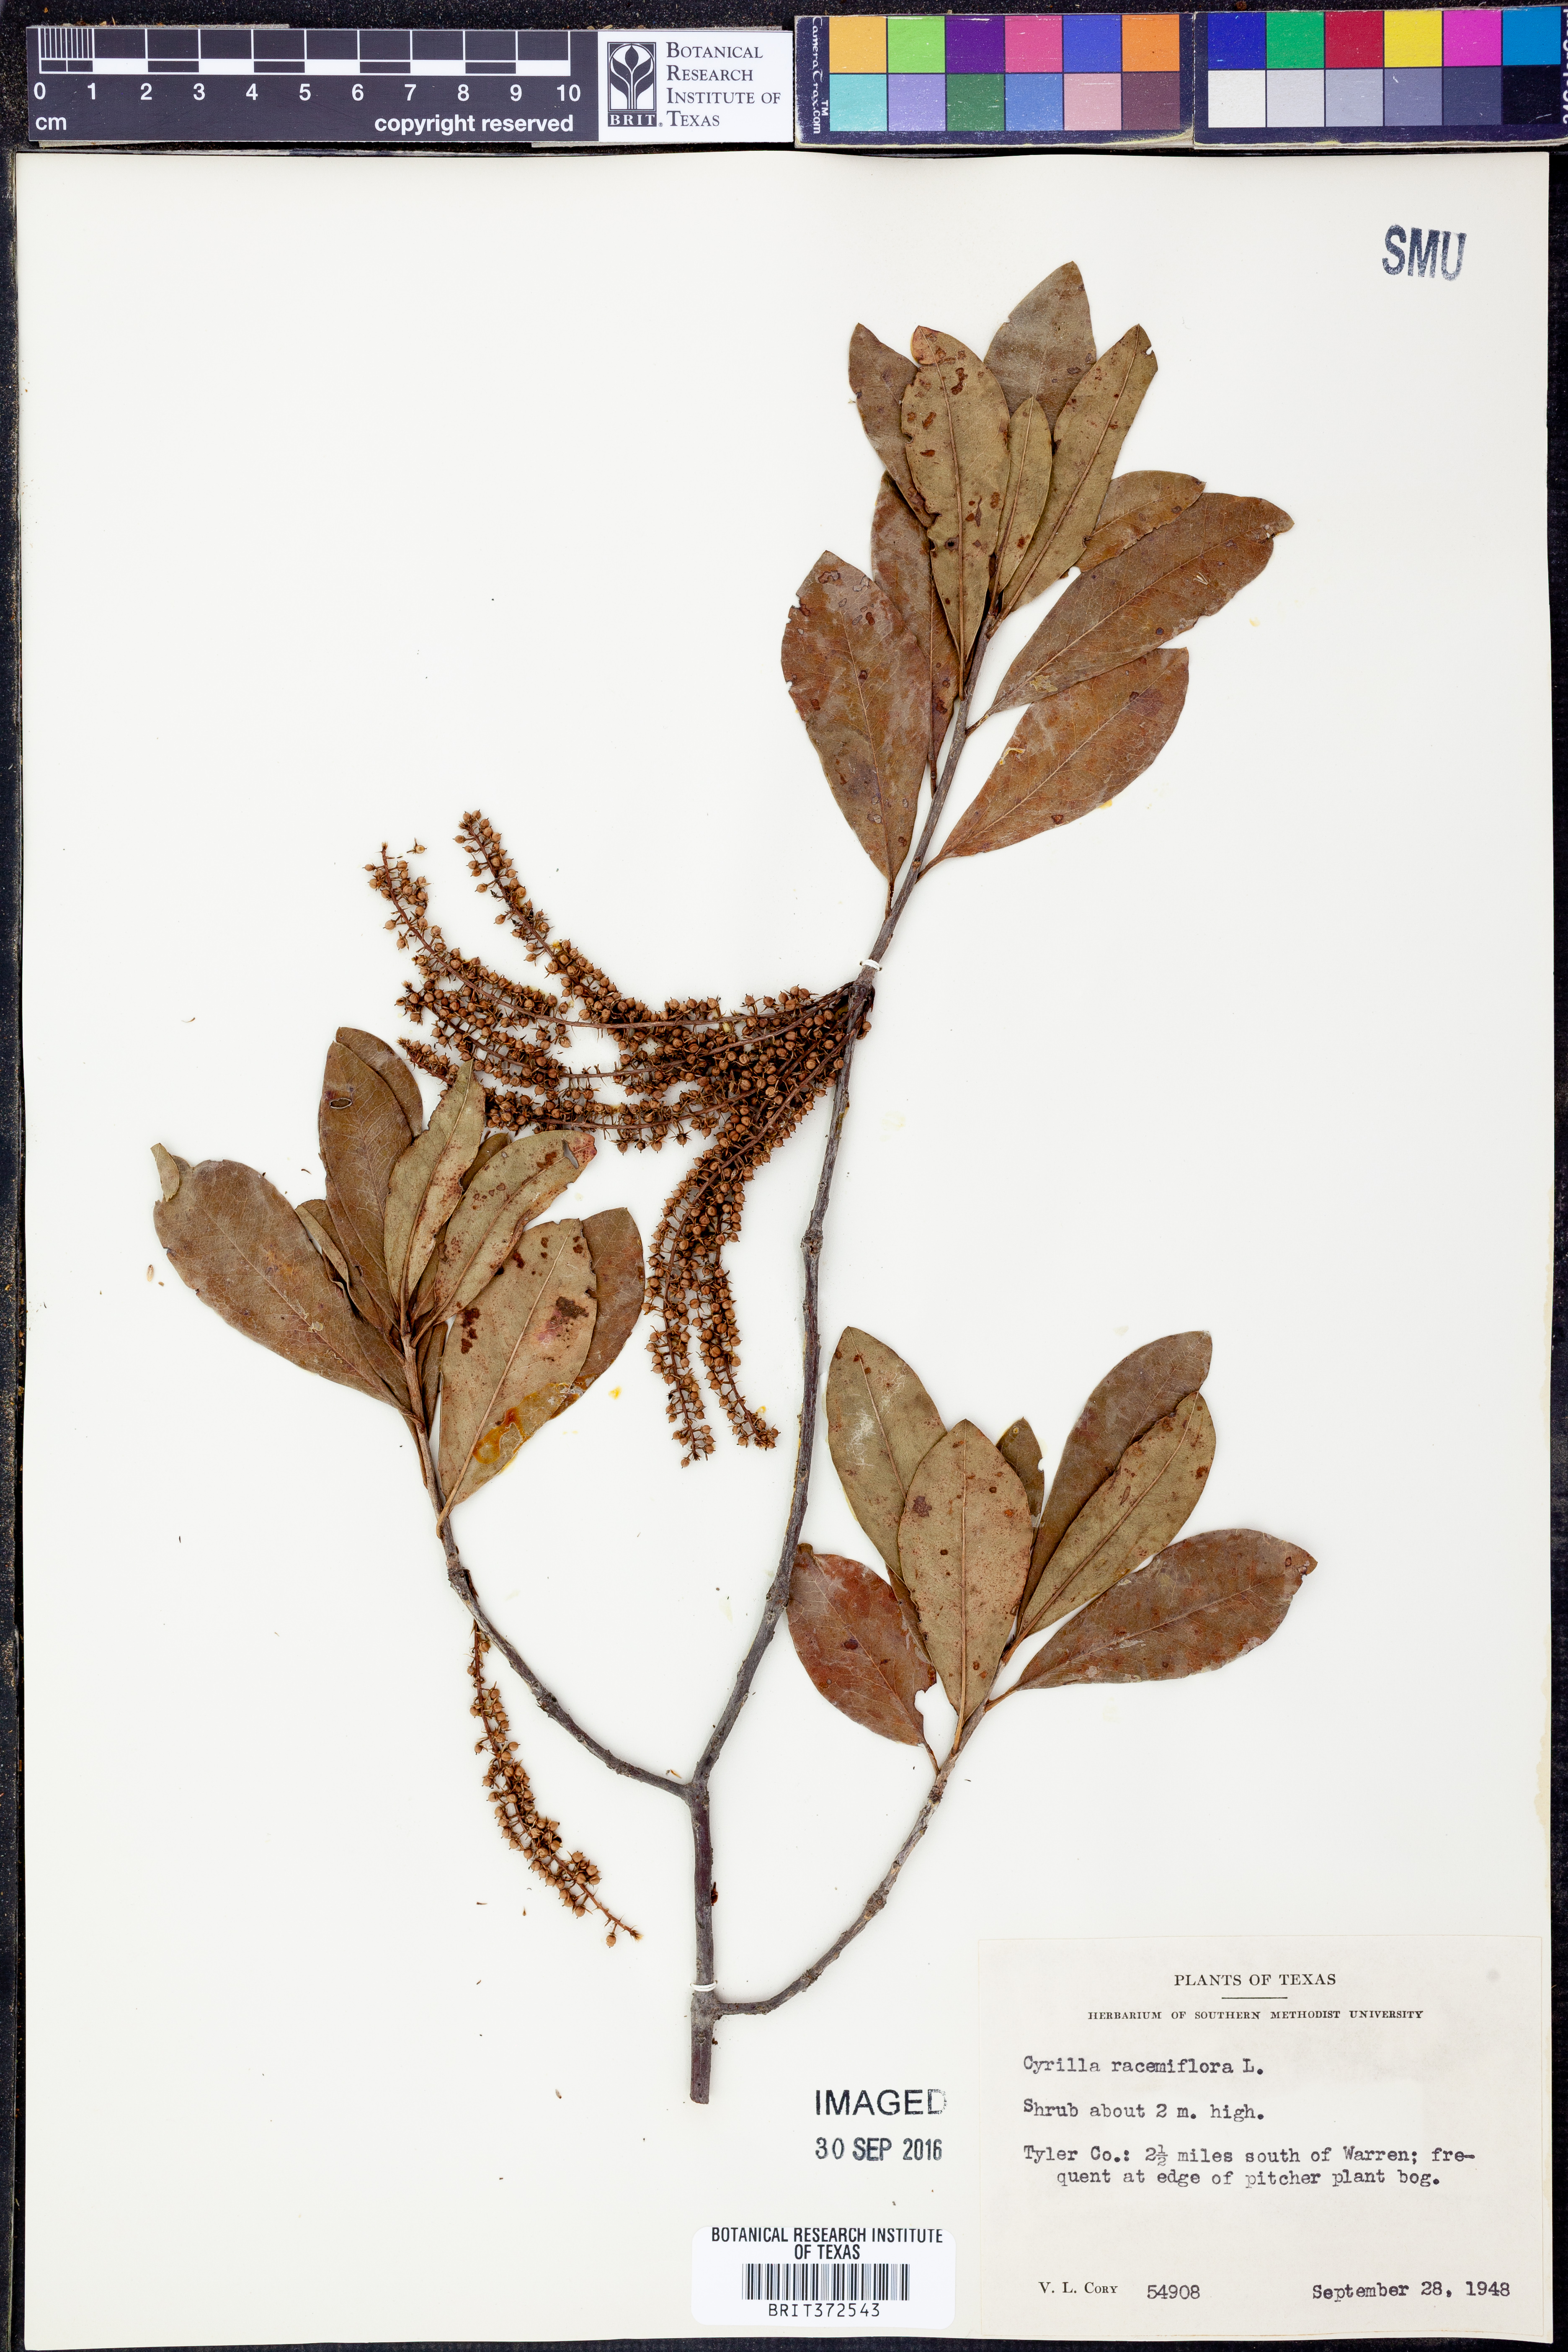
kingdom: Plantae
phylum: Tracheophyta
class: Magnoliopsida
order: Ericales
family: Cyrillaceae
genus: Cyrilla
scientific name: Cyrilla racemiflora
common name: Black titi
